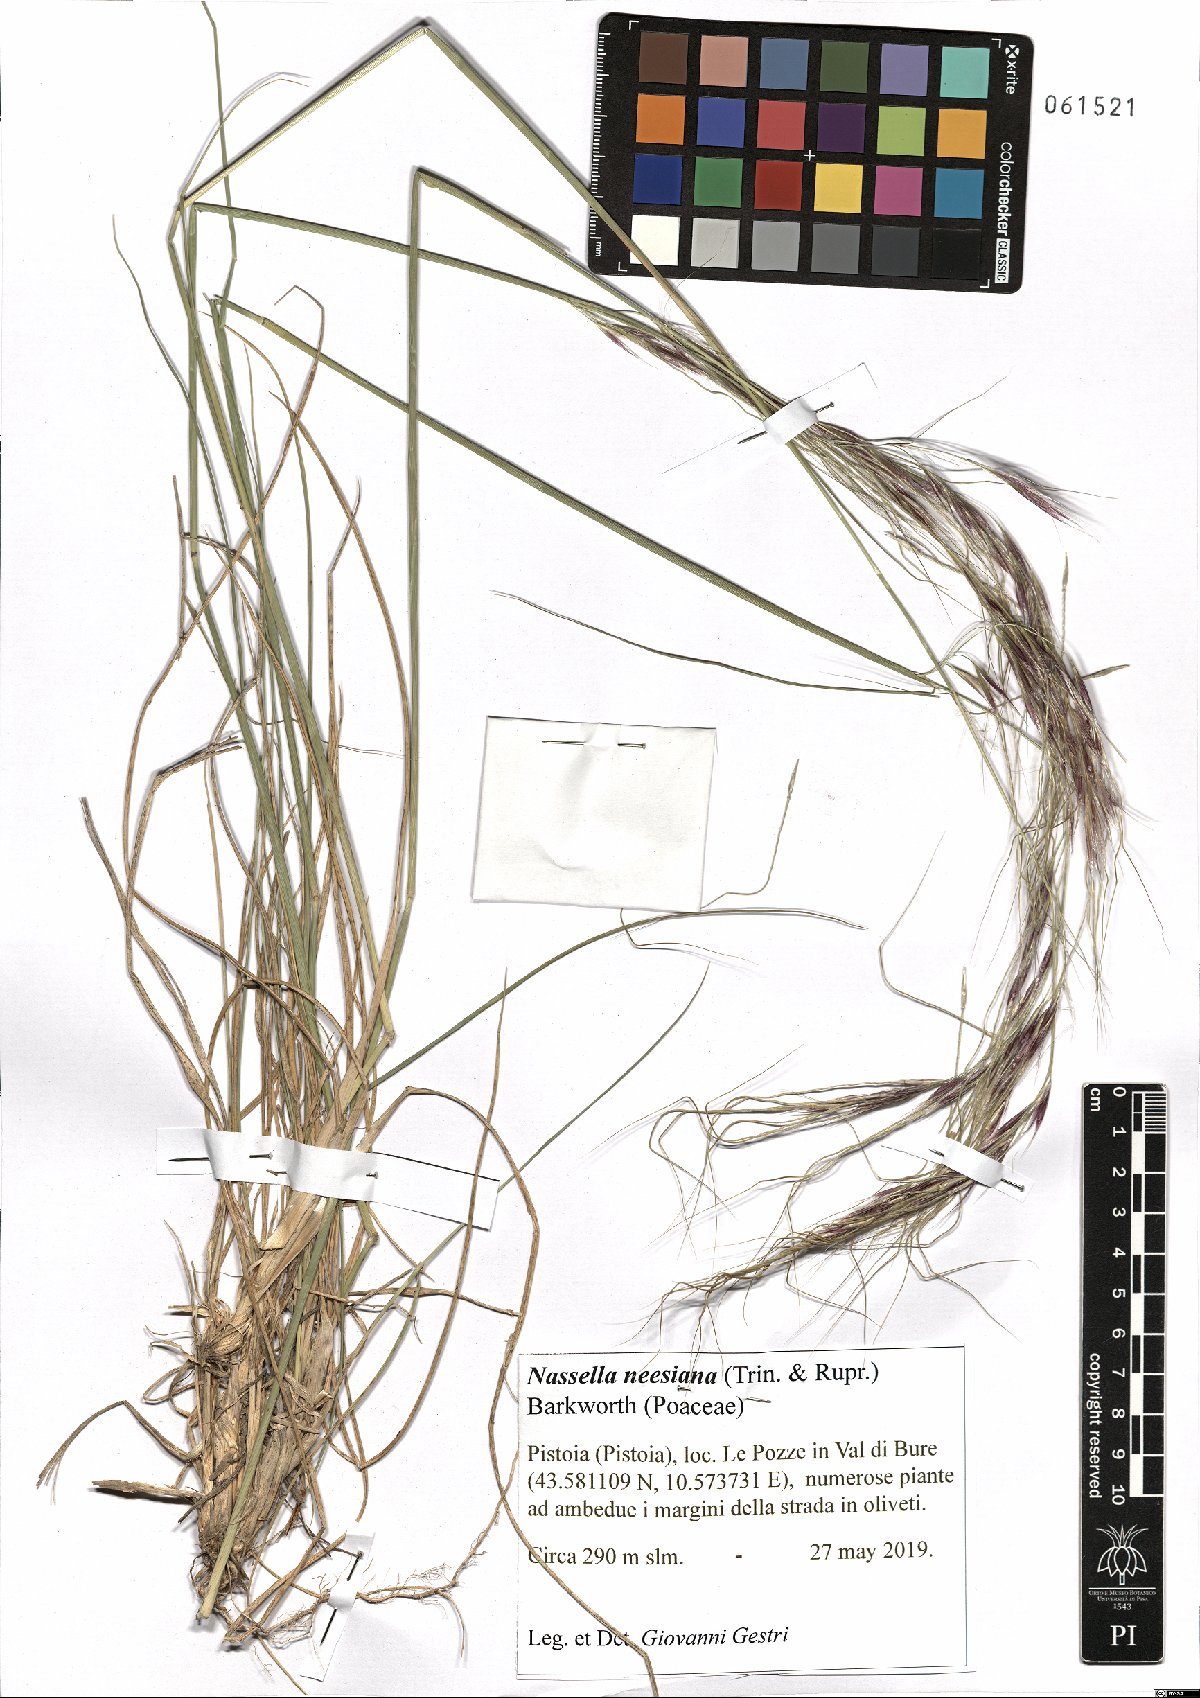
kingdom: Plantae
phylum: Tracheophyta
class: Liliopsida
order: Poales
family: Poaceae
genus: Nassella
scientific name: Nassella neesiana
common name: American needle-grass
